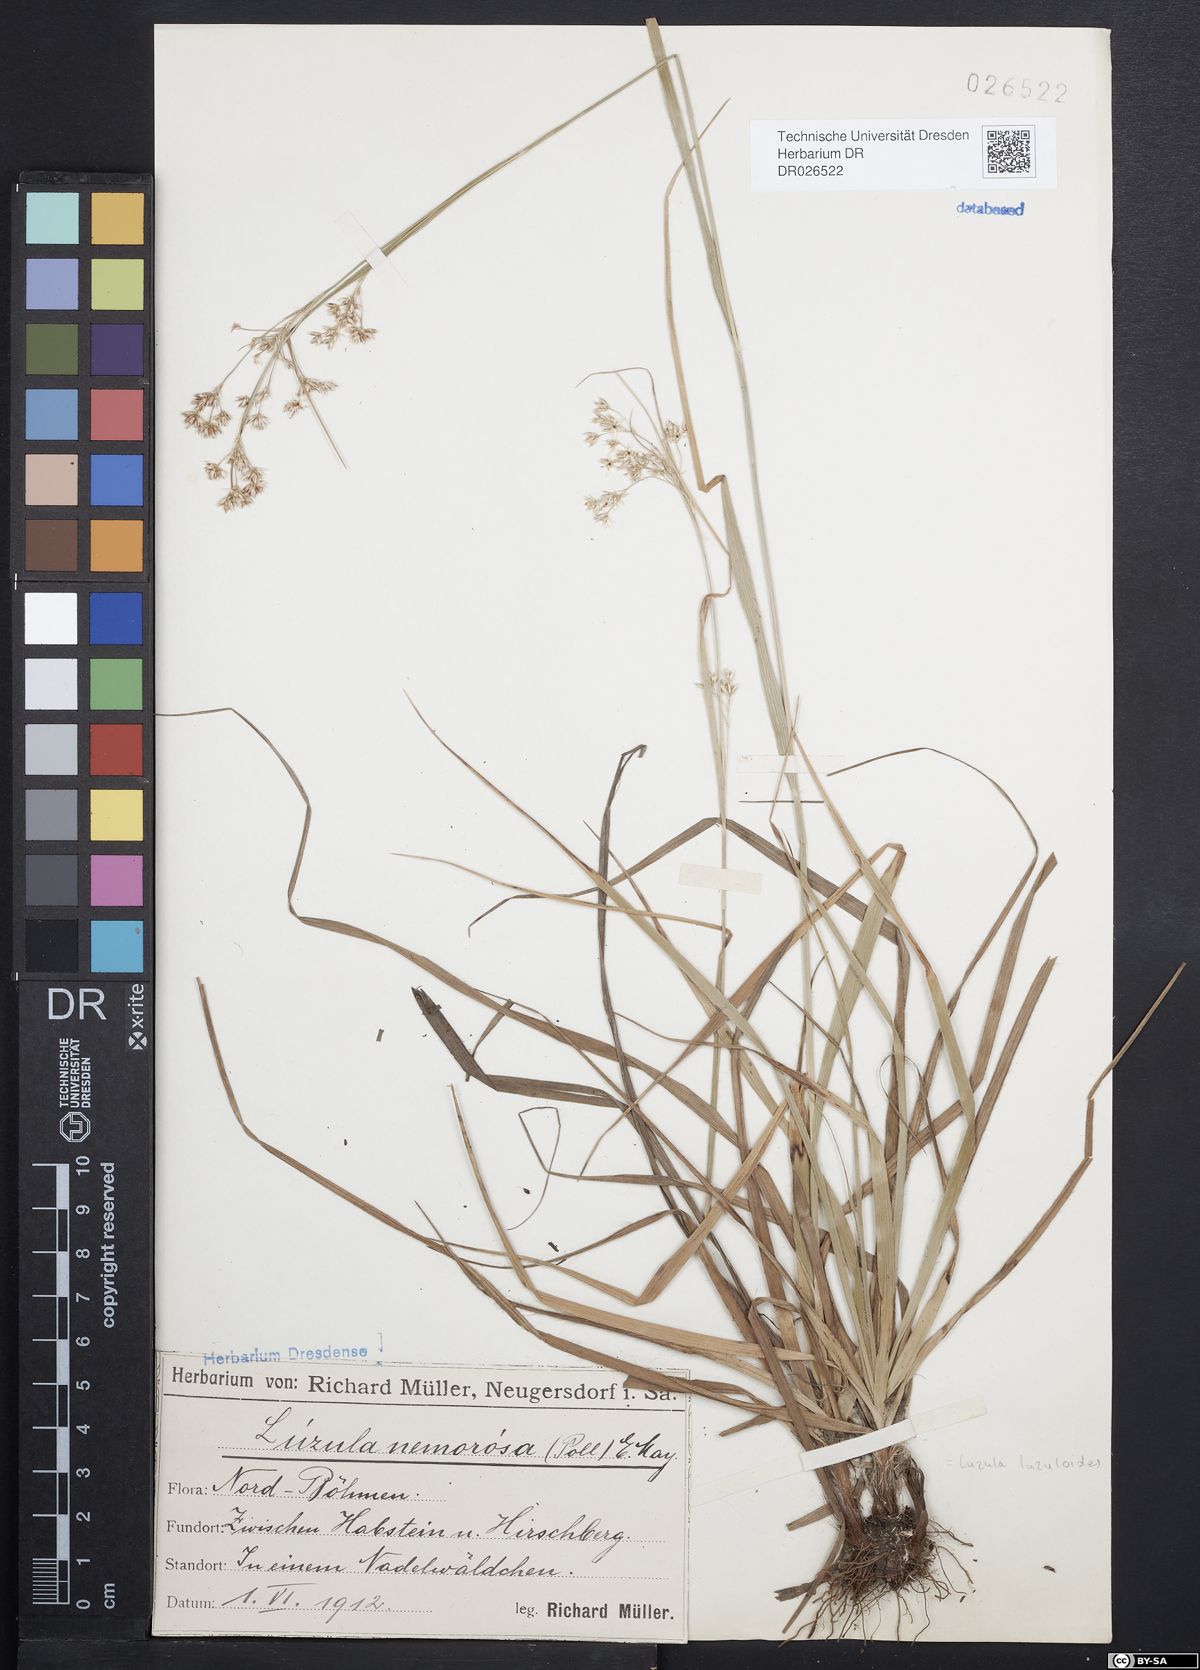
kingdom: Plantae
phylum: Tracheophyta
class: Liliopsida
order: Poales
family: Juncaceae
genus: Luzula
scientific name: Luzula luzuloides
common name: White wood-rush
